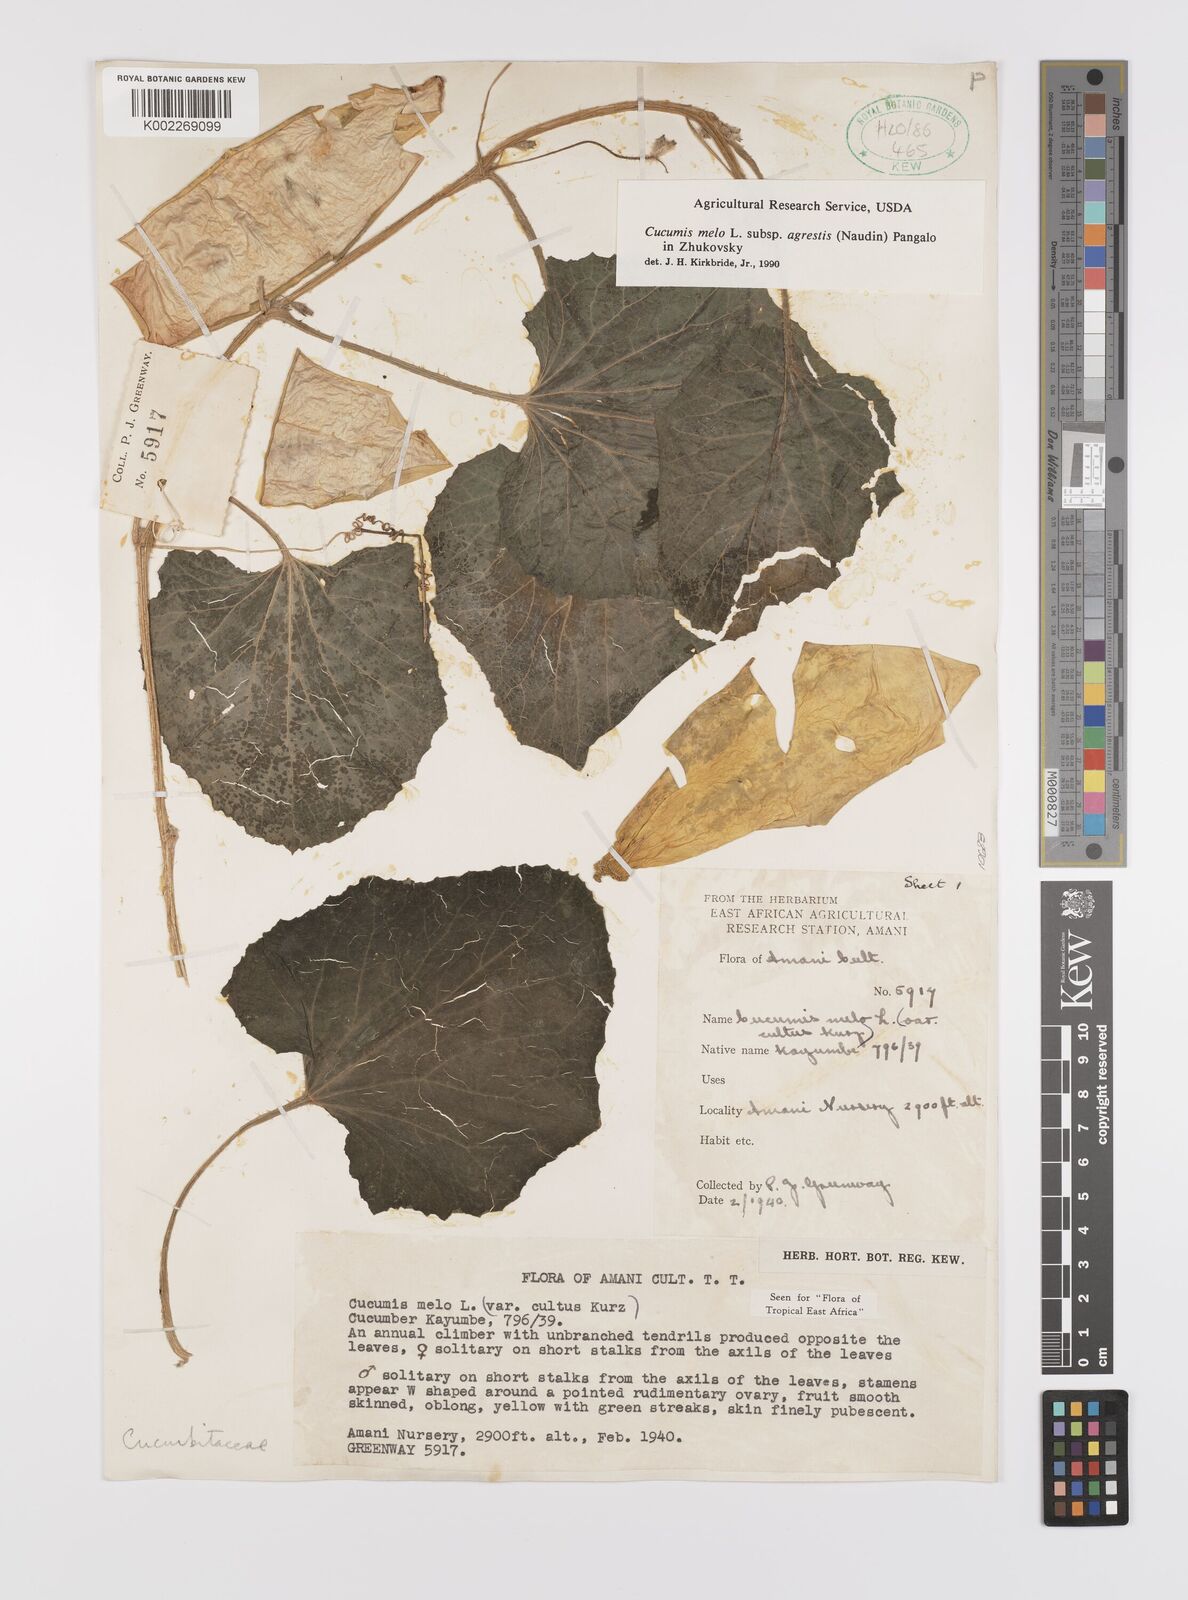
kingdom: Plantae
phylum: Tracheophyta
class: Magnoliopsida
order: Cucurbitales
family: Cucurbitaceae
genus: Cucumis
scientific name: Cucumis melo
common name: Melon
